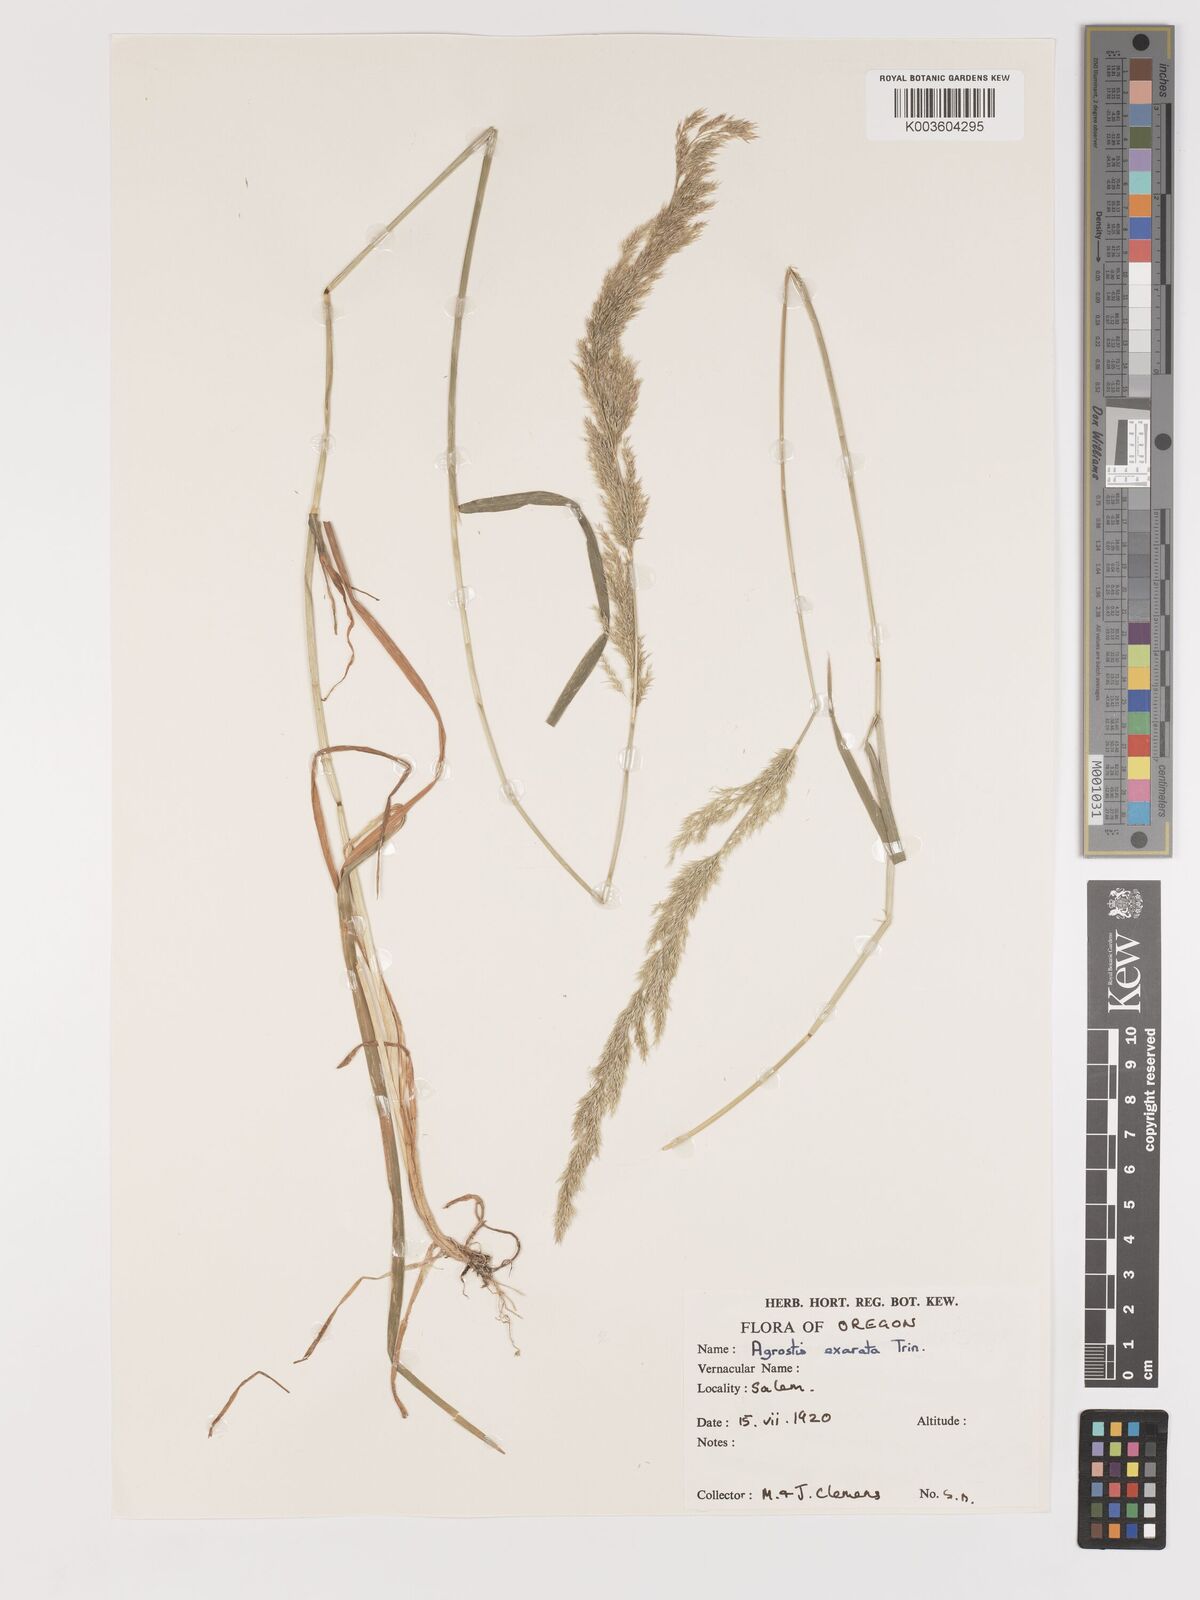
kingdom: Plantae
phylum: Tracheophyta
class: Liliopsida
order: Poales
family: Poaceae
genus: Agrostis
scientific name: Agrostis exarata
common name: Spike bent
